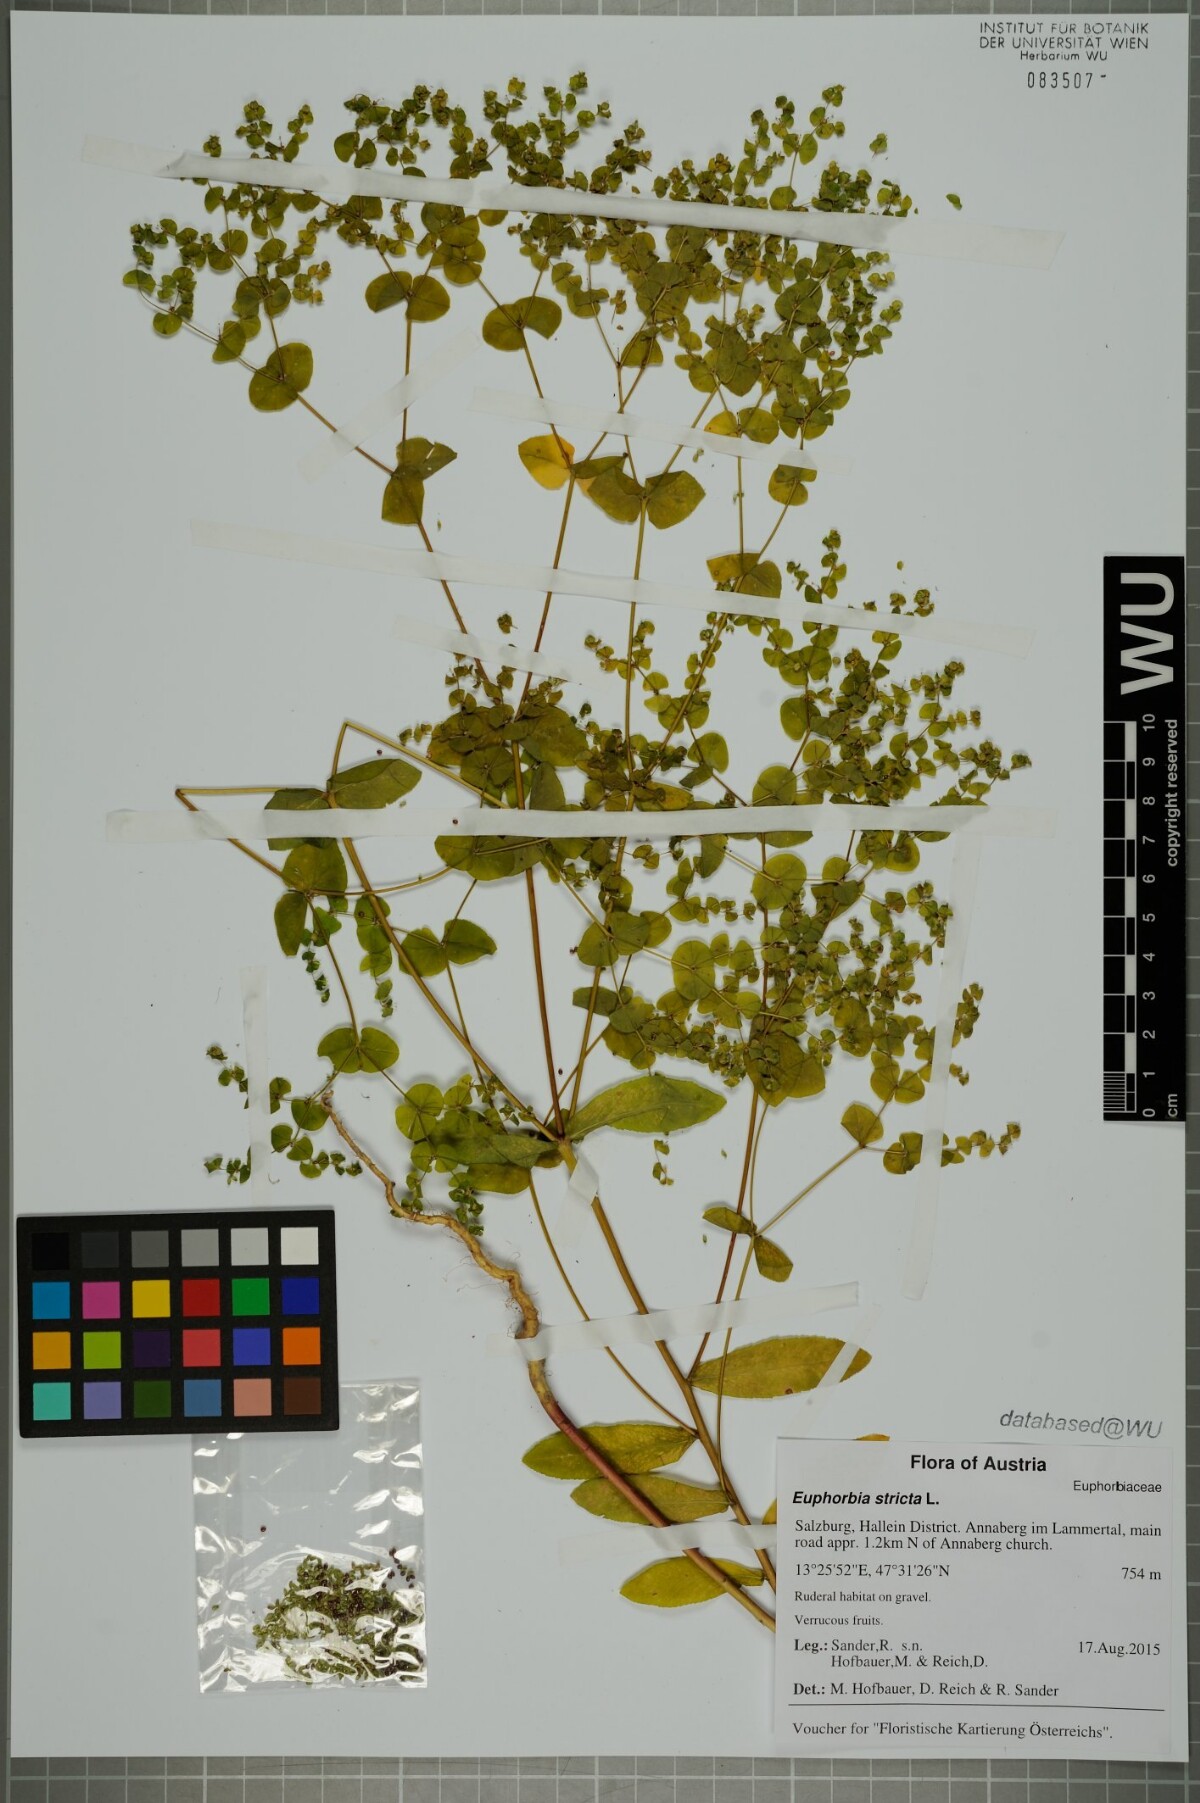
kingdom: Plantae
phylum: Tracheophyta
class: Magnoliopsida
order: Malpighiales
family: Euphorbiaceae
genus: Euphorbia
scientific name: Euphorbia stricta
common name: Upright spurge
